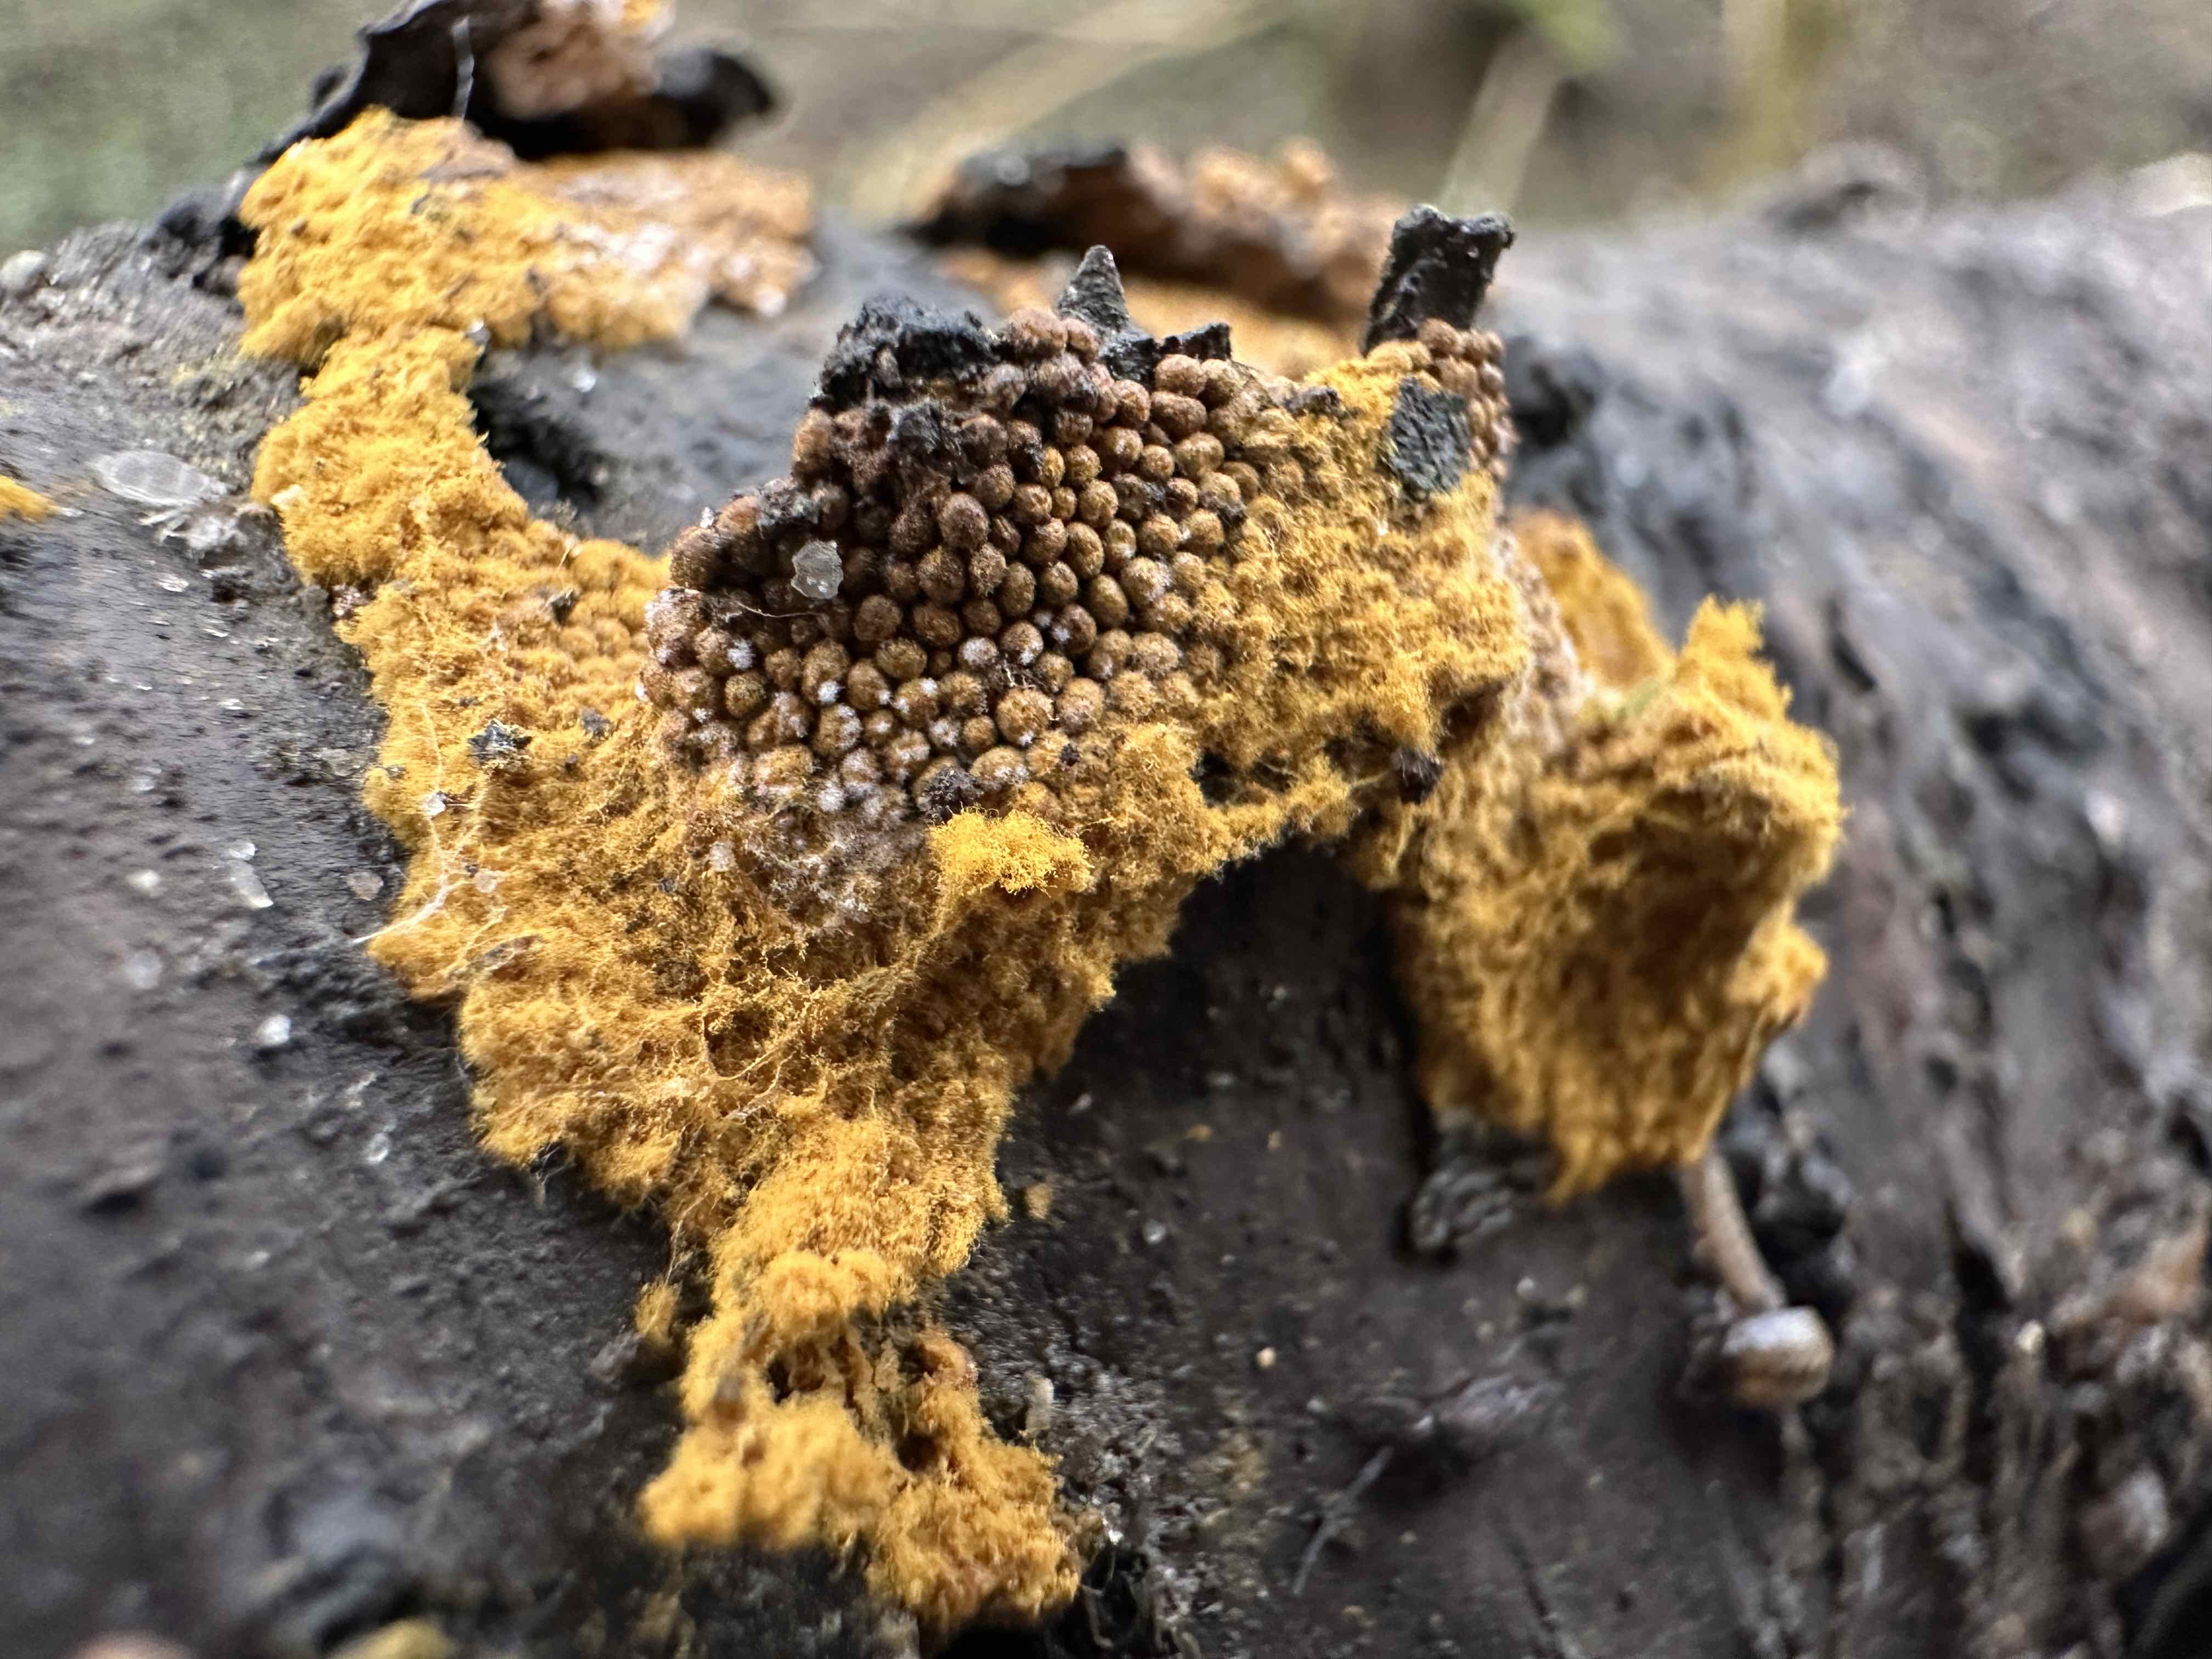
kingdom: Protozoa
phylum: Mycetozoa
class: Myxomycetes
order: Trichiales
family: Trichiaceae
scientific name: Trichiaceae
